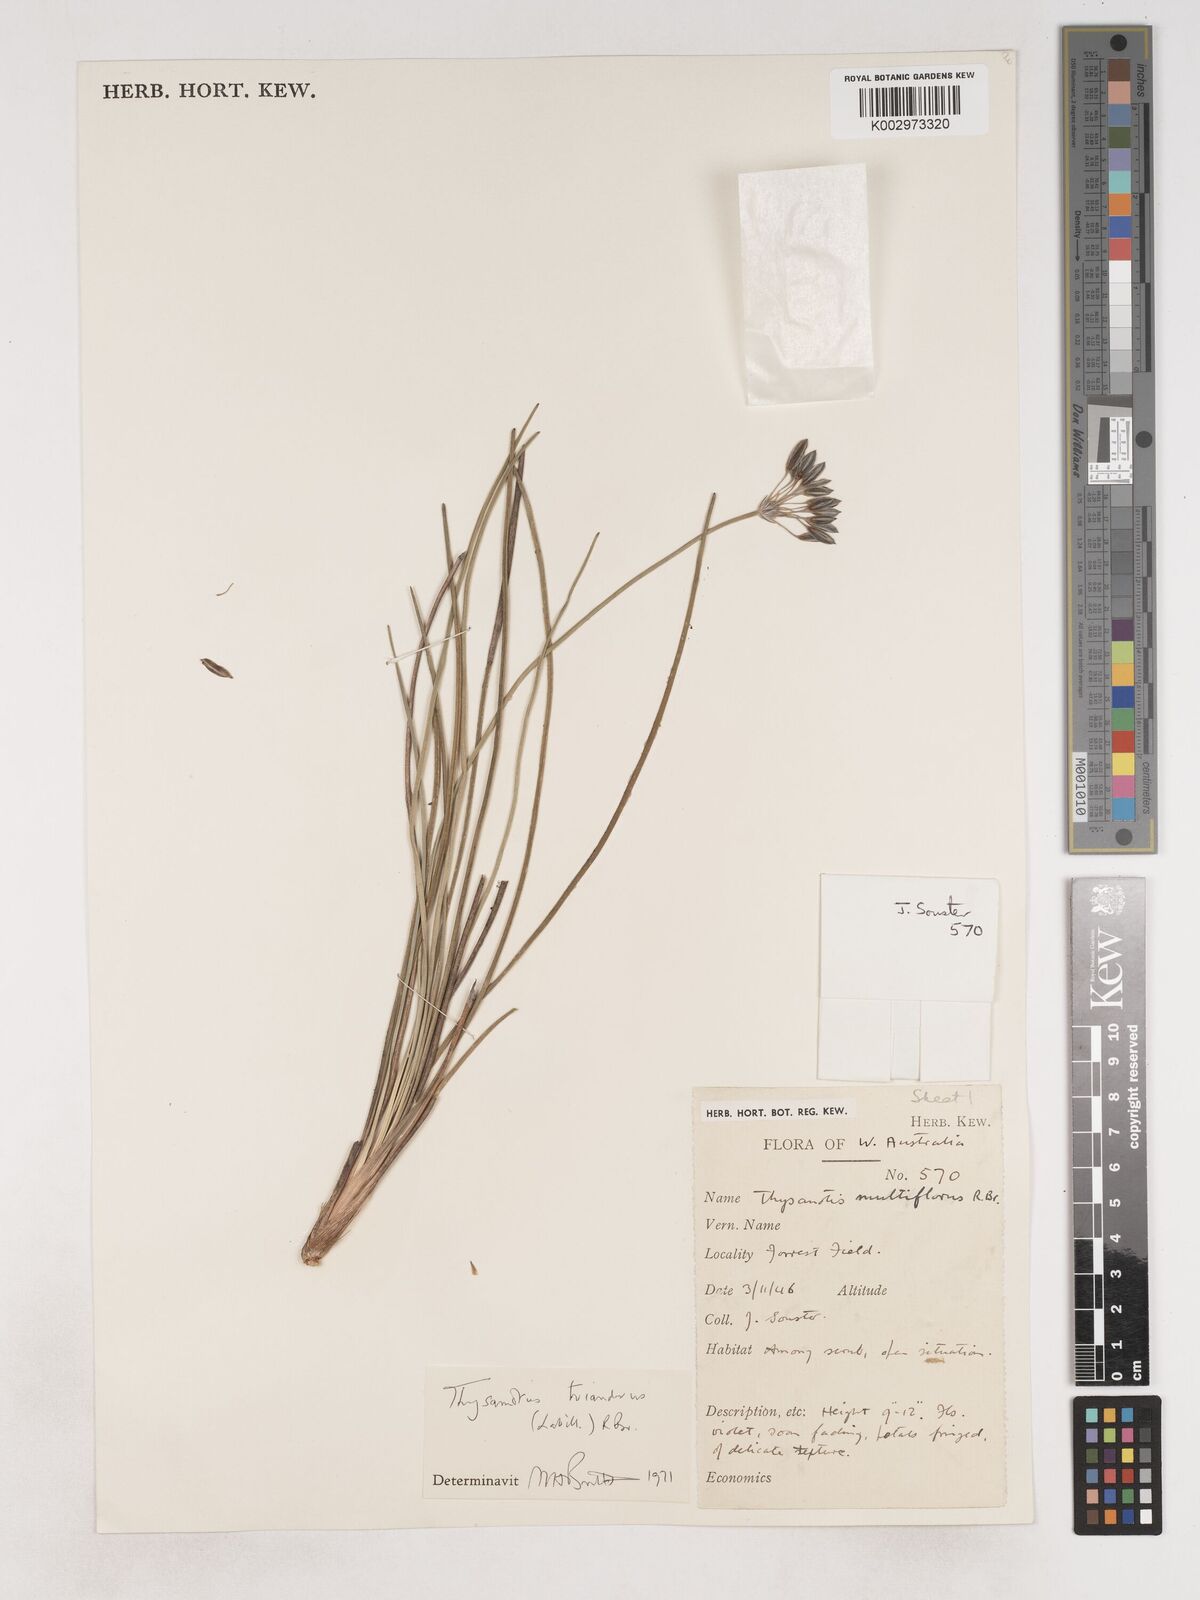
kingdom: Plantae
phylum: Tracheophyta
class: Liliopsida
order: Asparagales
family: Asparagaceae
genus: Thysanotus
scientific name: Thysanotus triandrus
